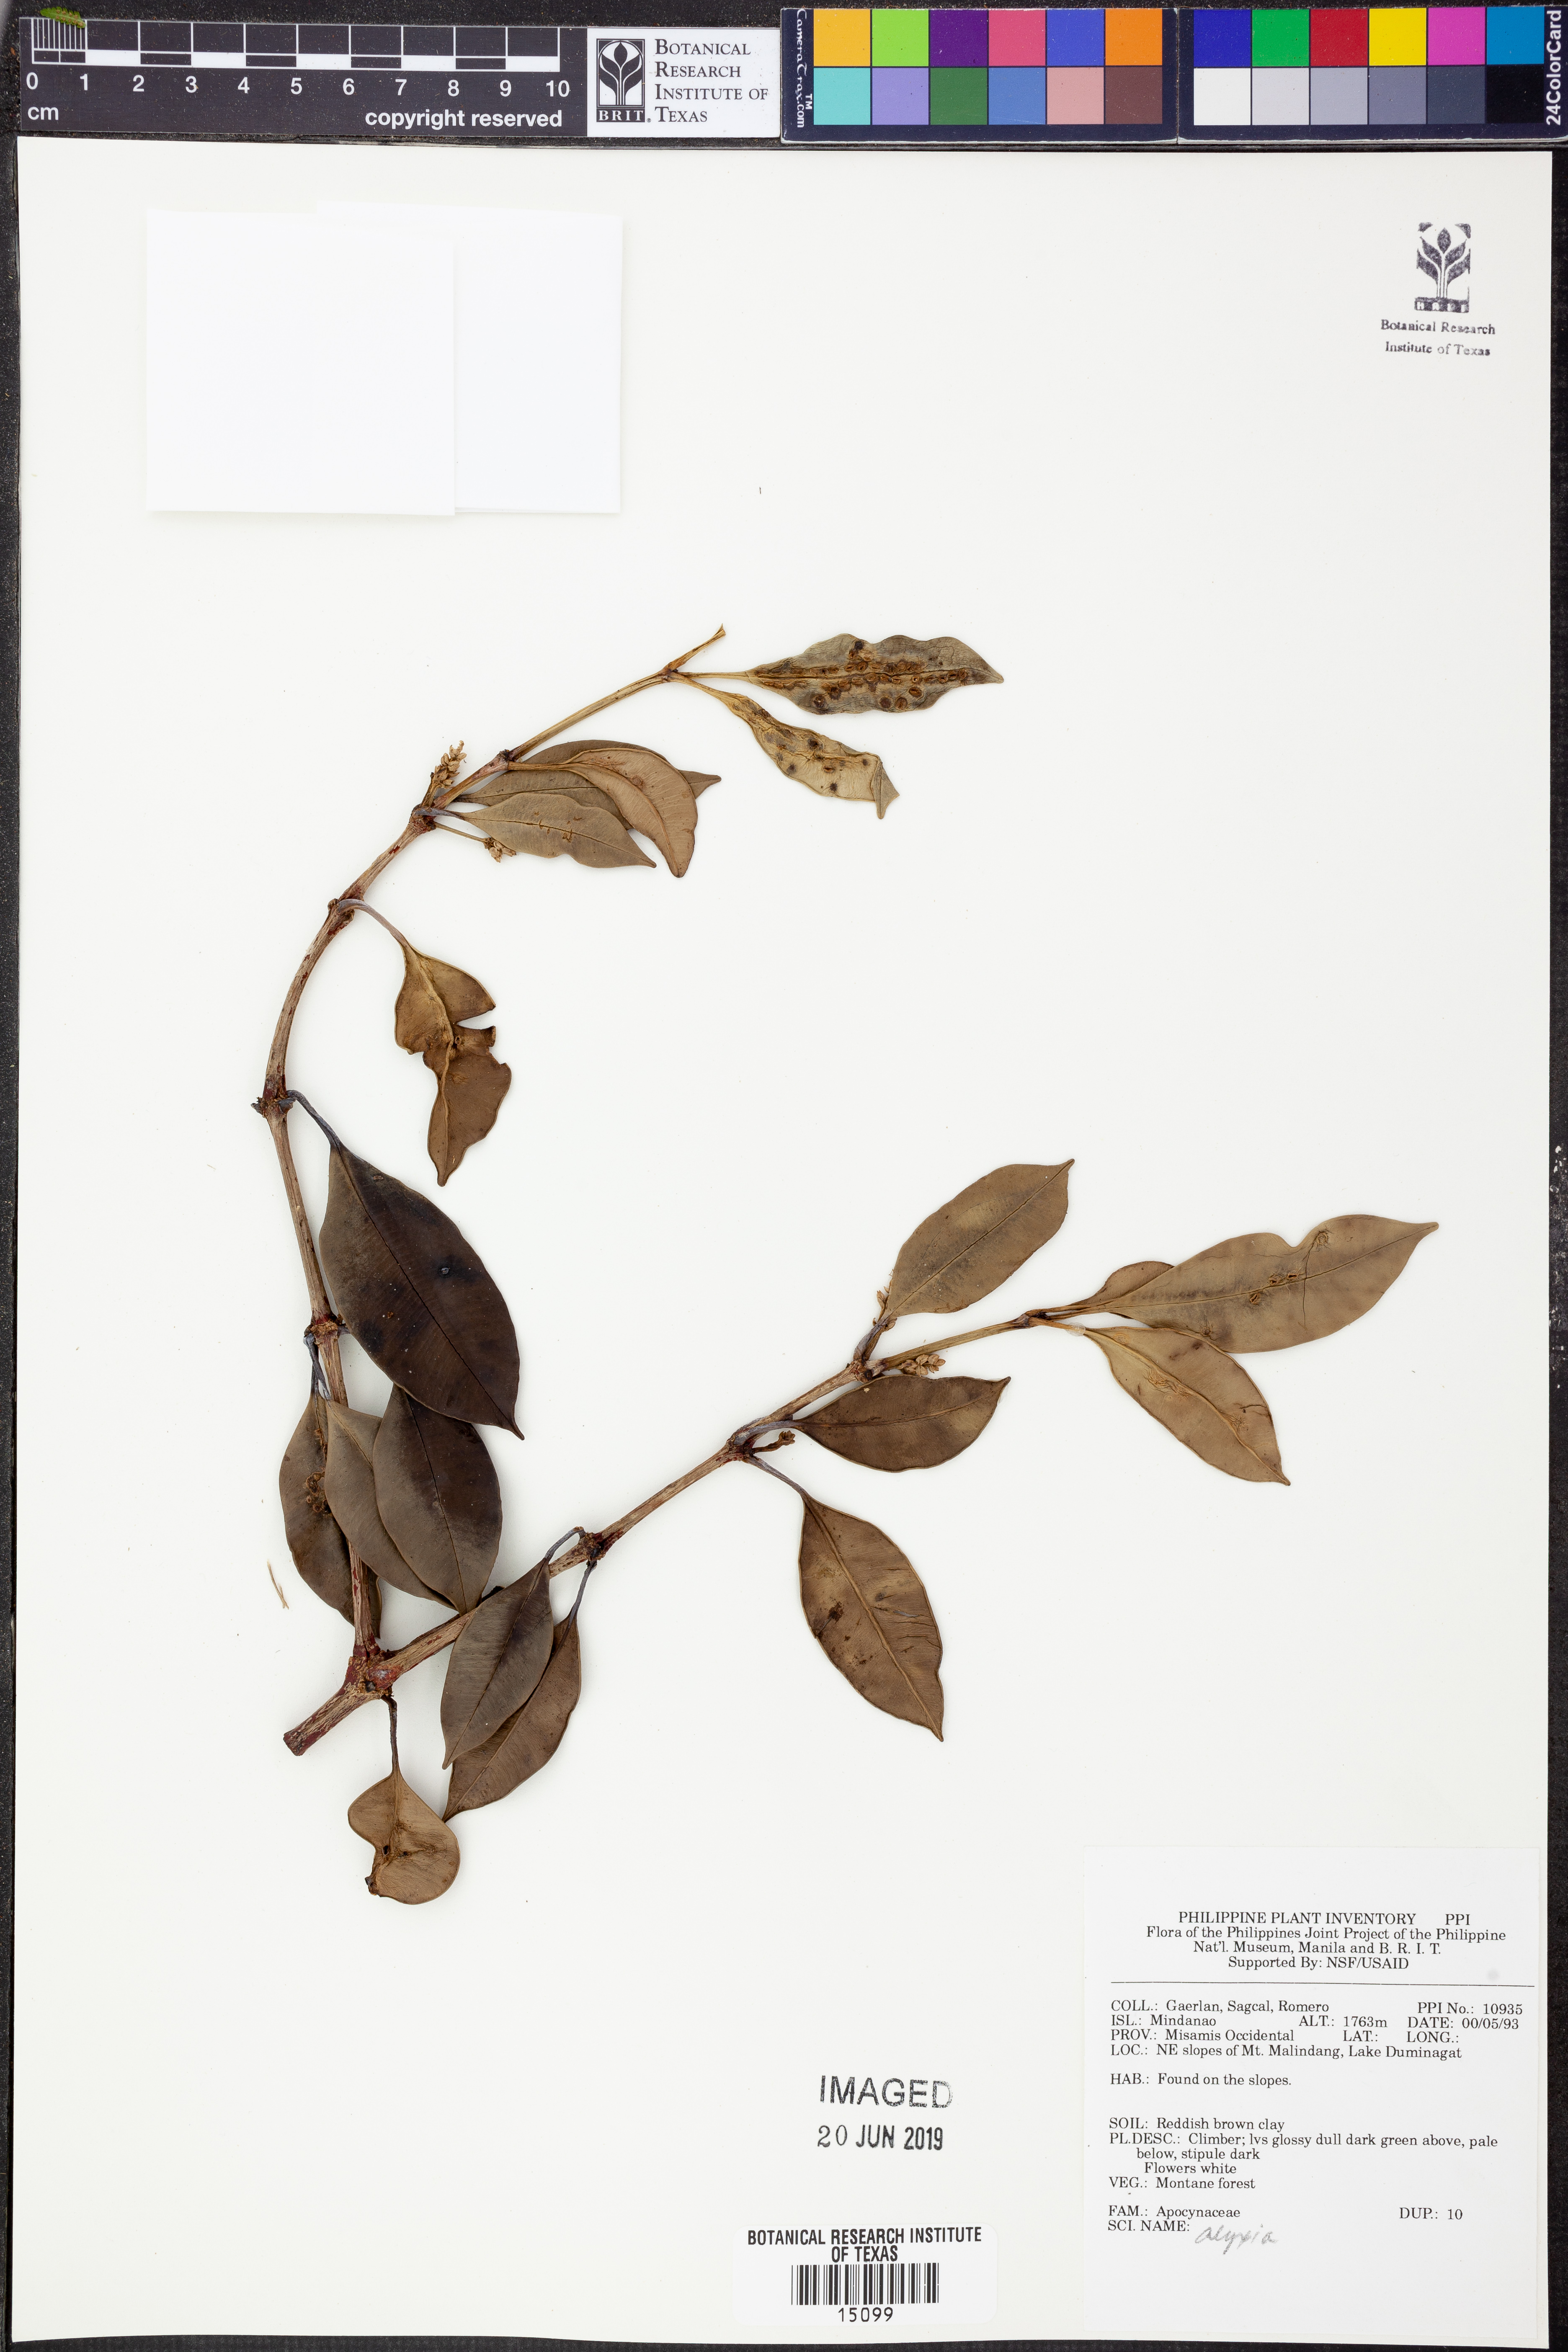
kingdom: Plantae
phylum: Tracheophyta
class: Magnoliopsida
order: Gentianales
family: Apocynaceae
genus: Alyxia
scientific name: Alyxia
